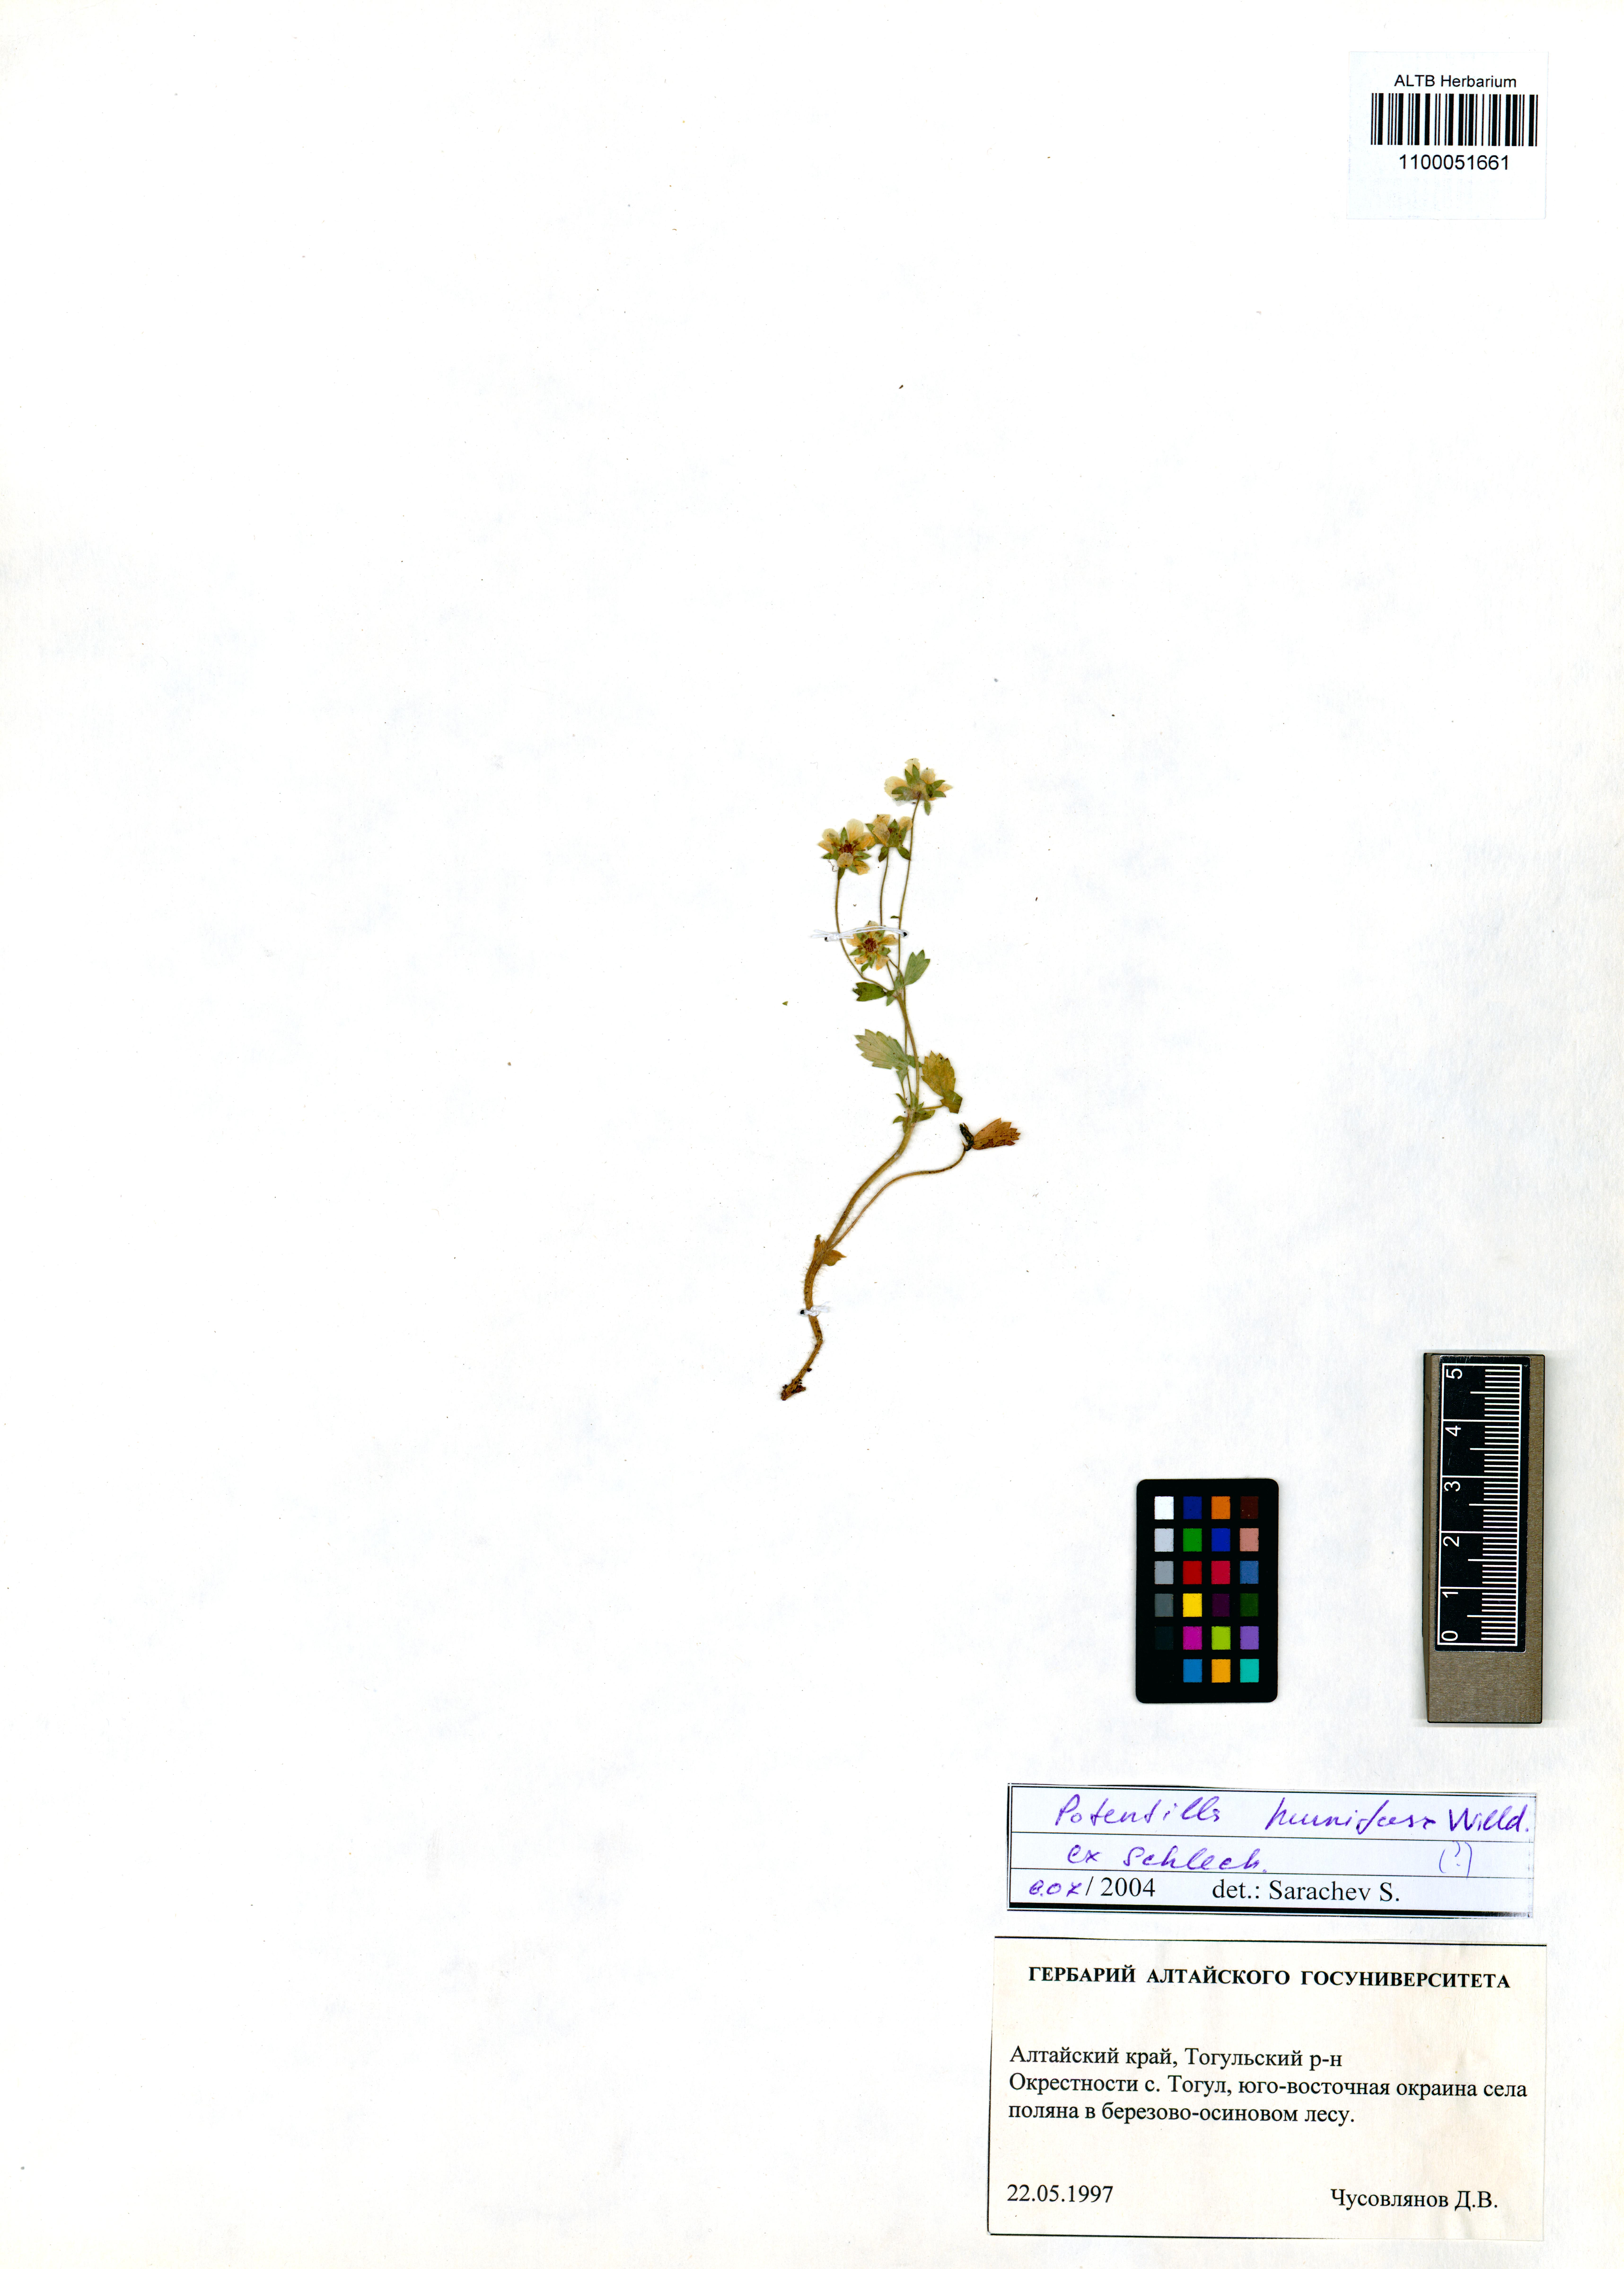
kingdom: Plantae
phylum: Tracheophyta
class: Magnoliopsida
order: Rosales
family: Rosaceae
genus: Potentilla
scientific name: Potentilla humifusa
